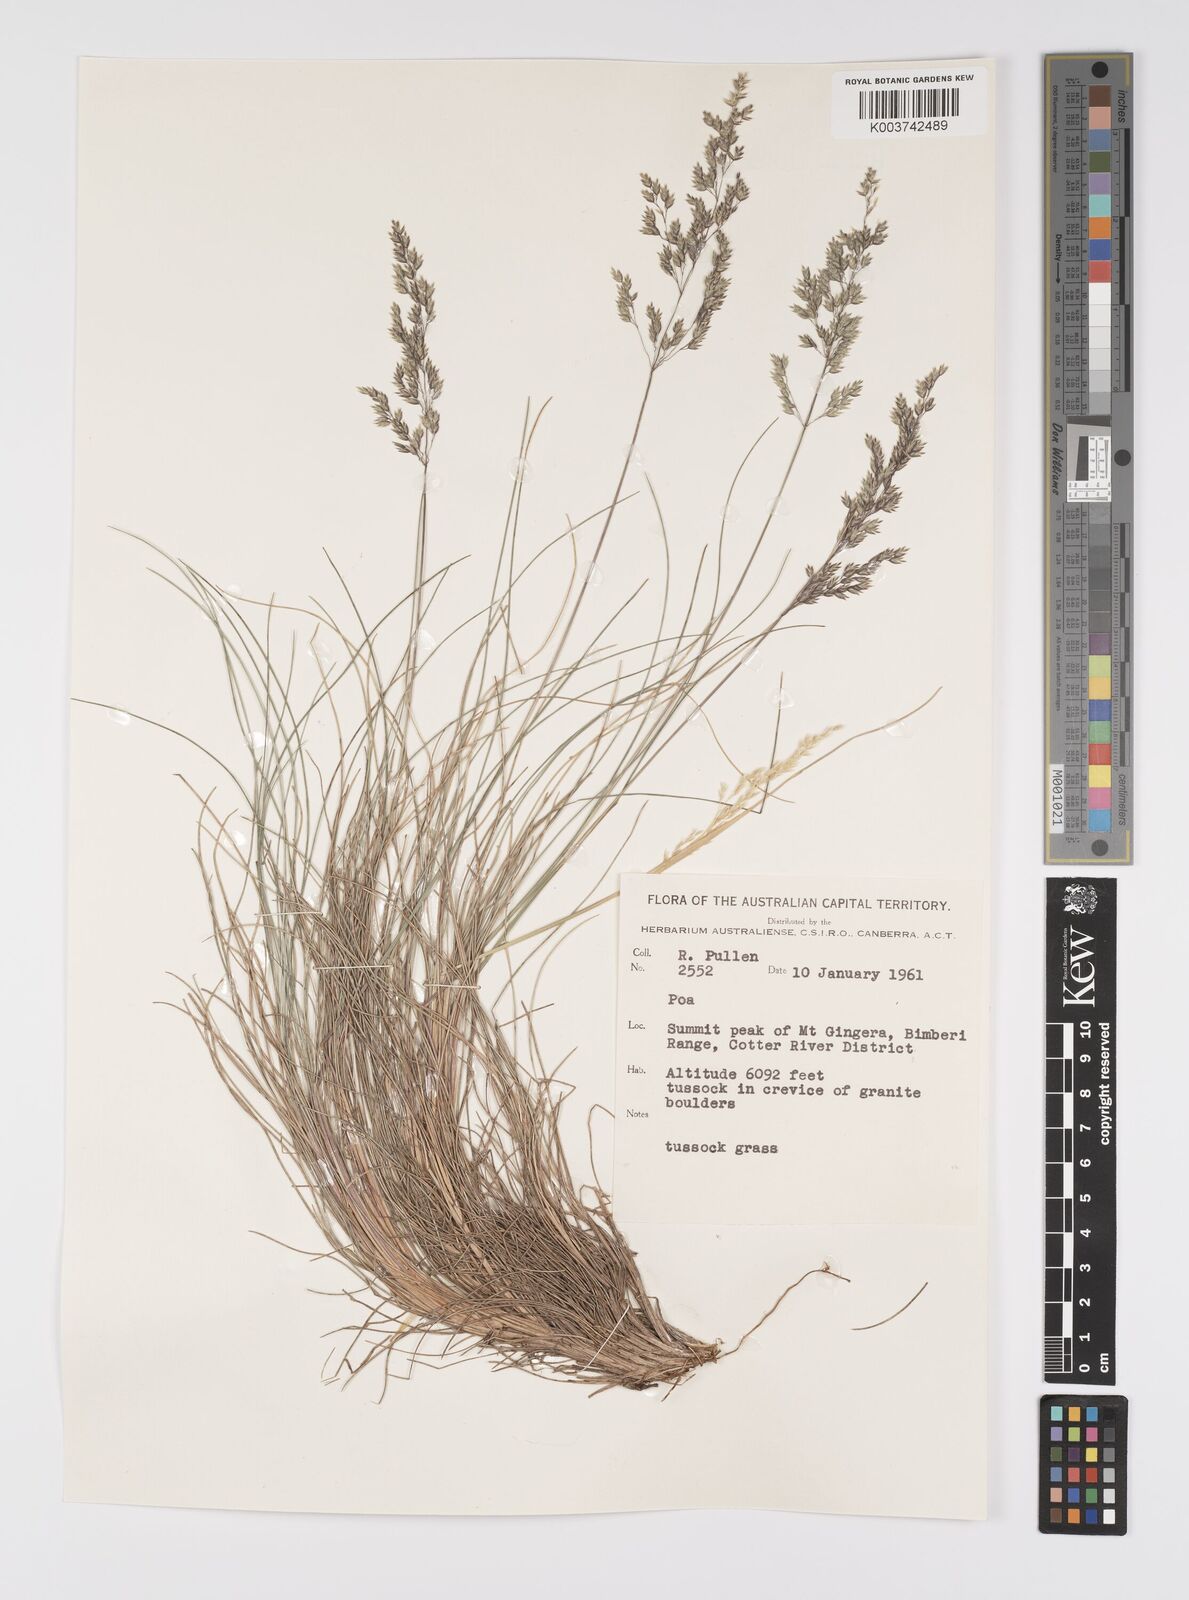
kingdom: Plantae
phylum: Tracheophyta
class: Liliopsida
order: Poales
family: Poaceae
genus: Poa
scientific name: Poa
